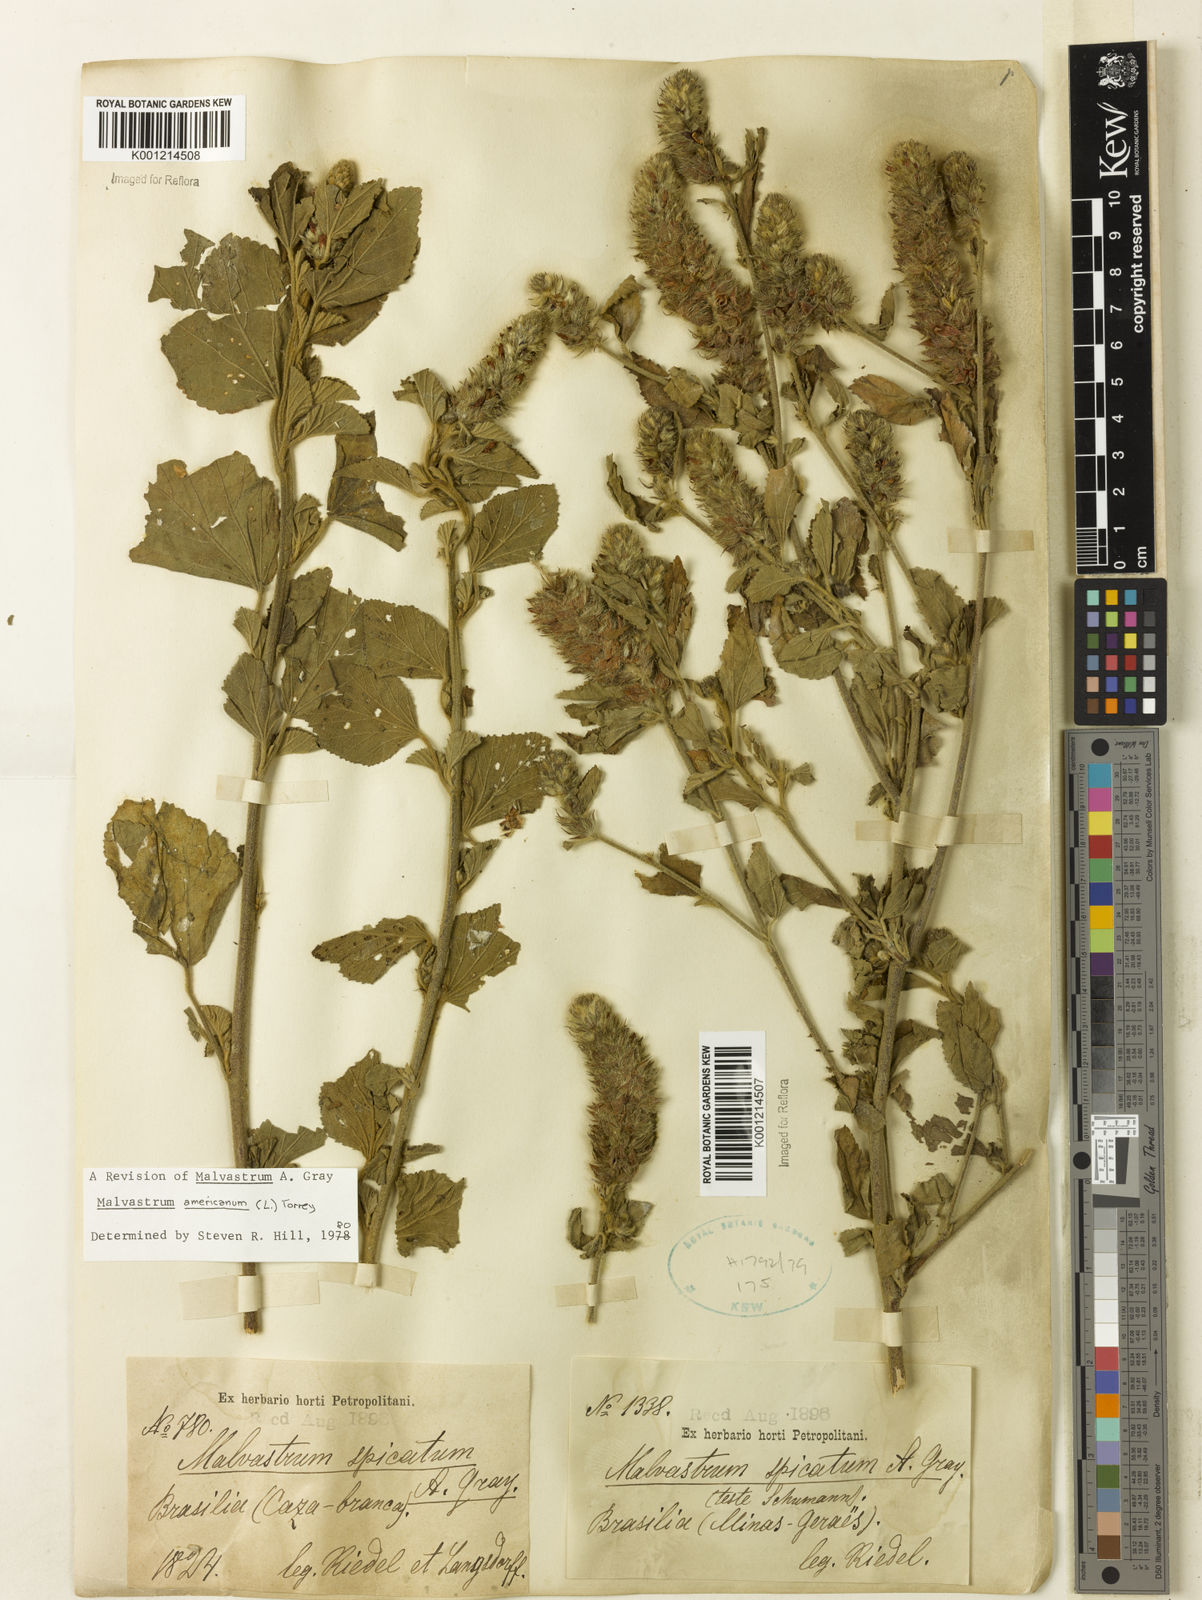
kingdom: Plantae
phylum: Tracheophyta
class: Magnoliopsida
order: Malvales
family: Malvaceae
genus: Malvastrum
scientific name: Malvastrum americanum
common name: Spiked malvastrum
